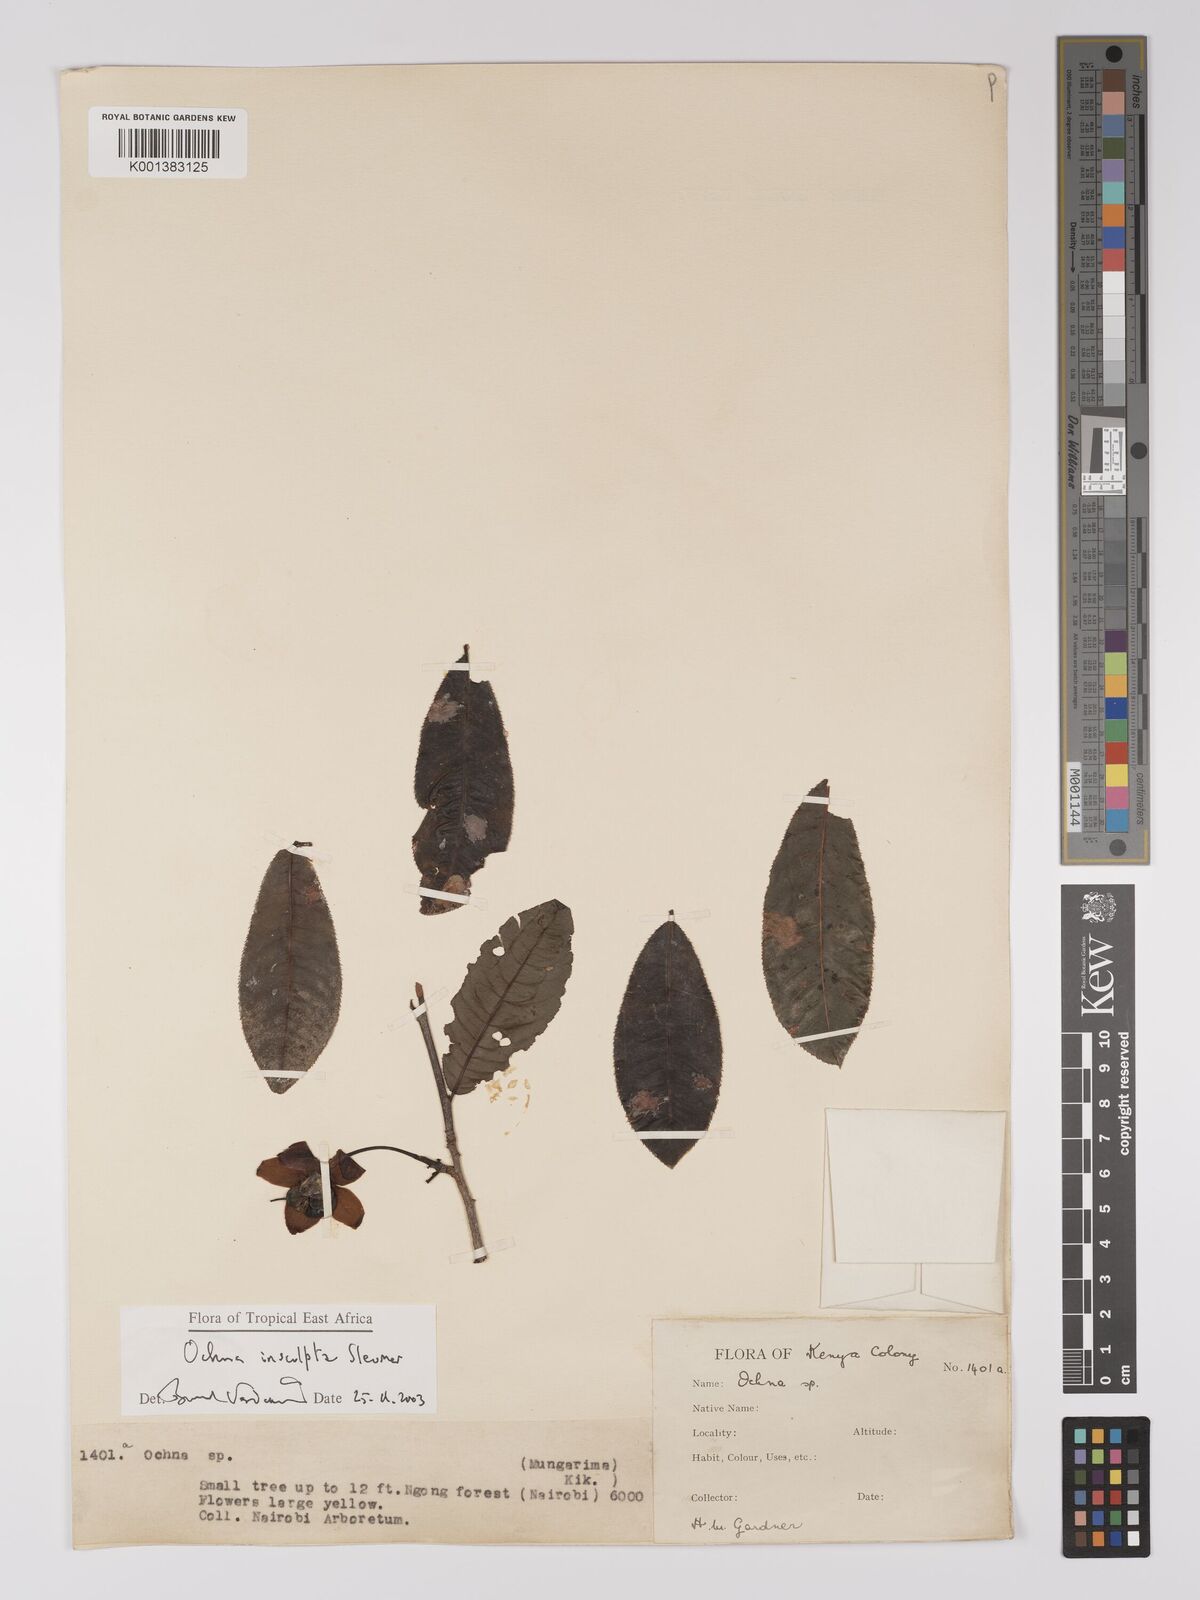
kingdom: Plantae
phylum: Tracheophyta
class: Magnoliopsida
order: Malpighiales
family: Ochnaceae
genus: Ochna
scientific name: Ochna insculpta
